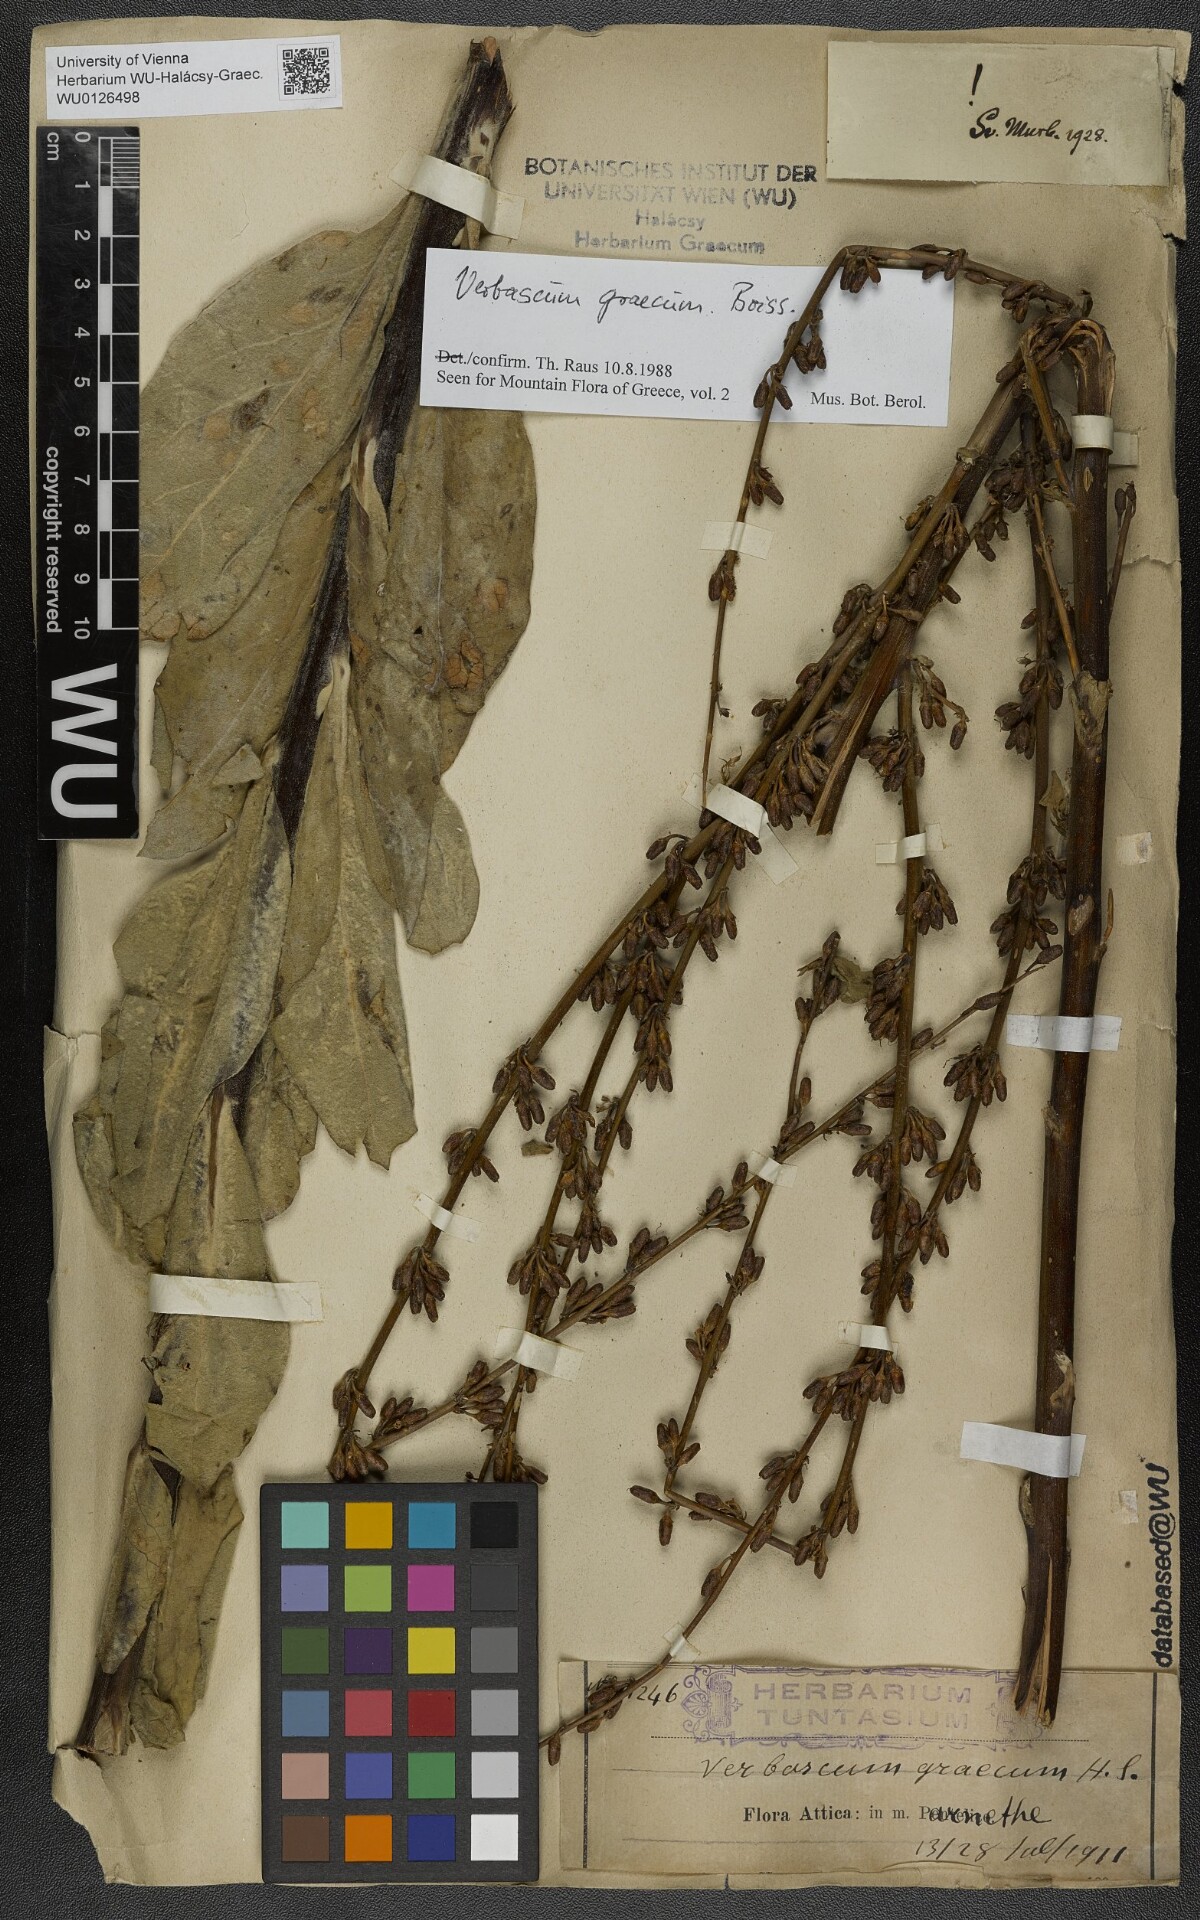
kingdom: Plantae
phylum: Tracheophyta
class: Magnoliopsida
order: Lamiales
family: Scrophulariaceae
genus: Verbascum
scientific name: Verbascum graecum
